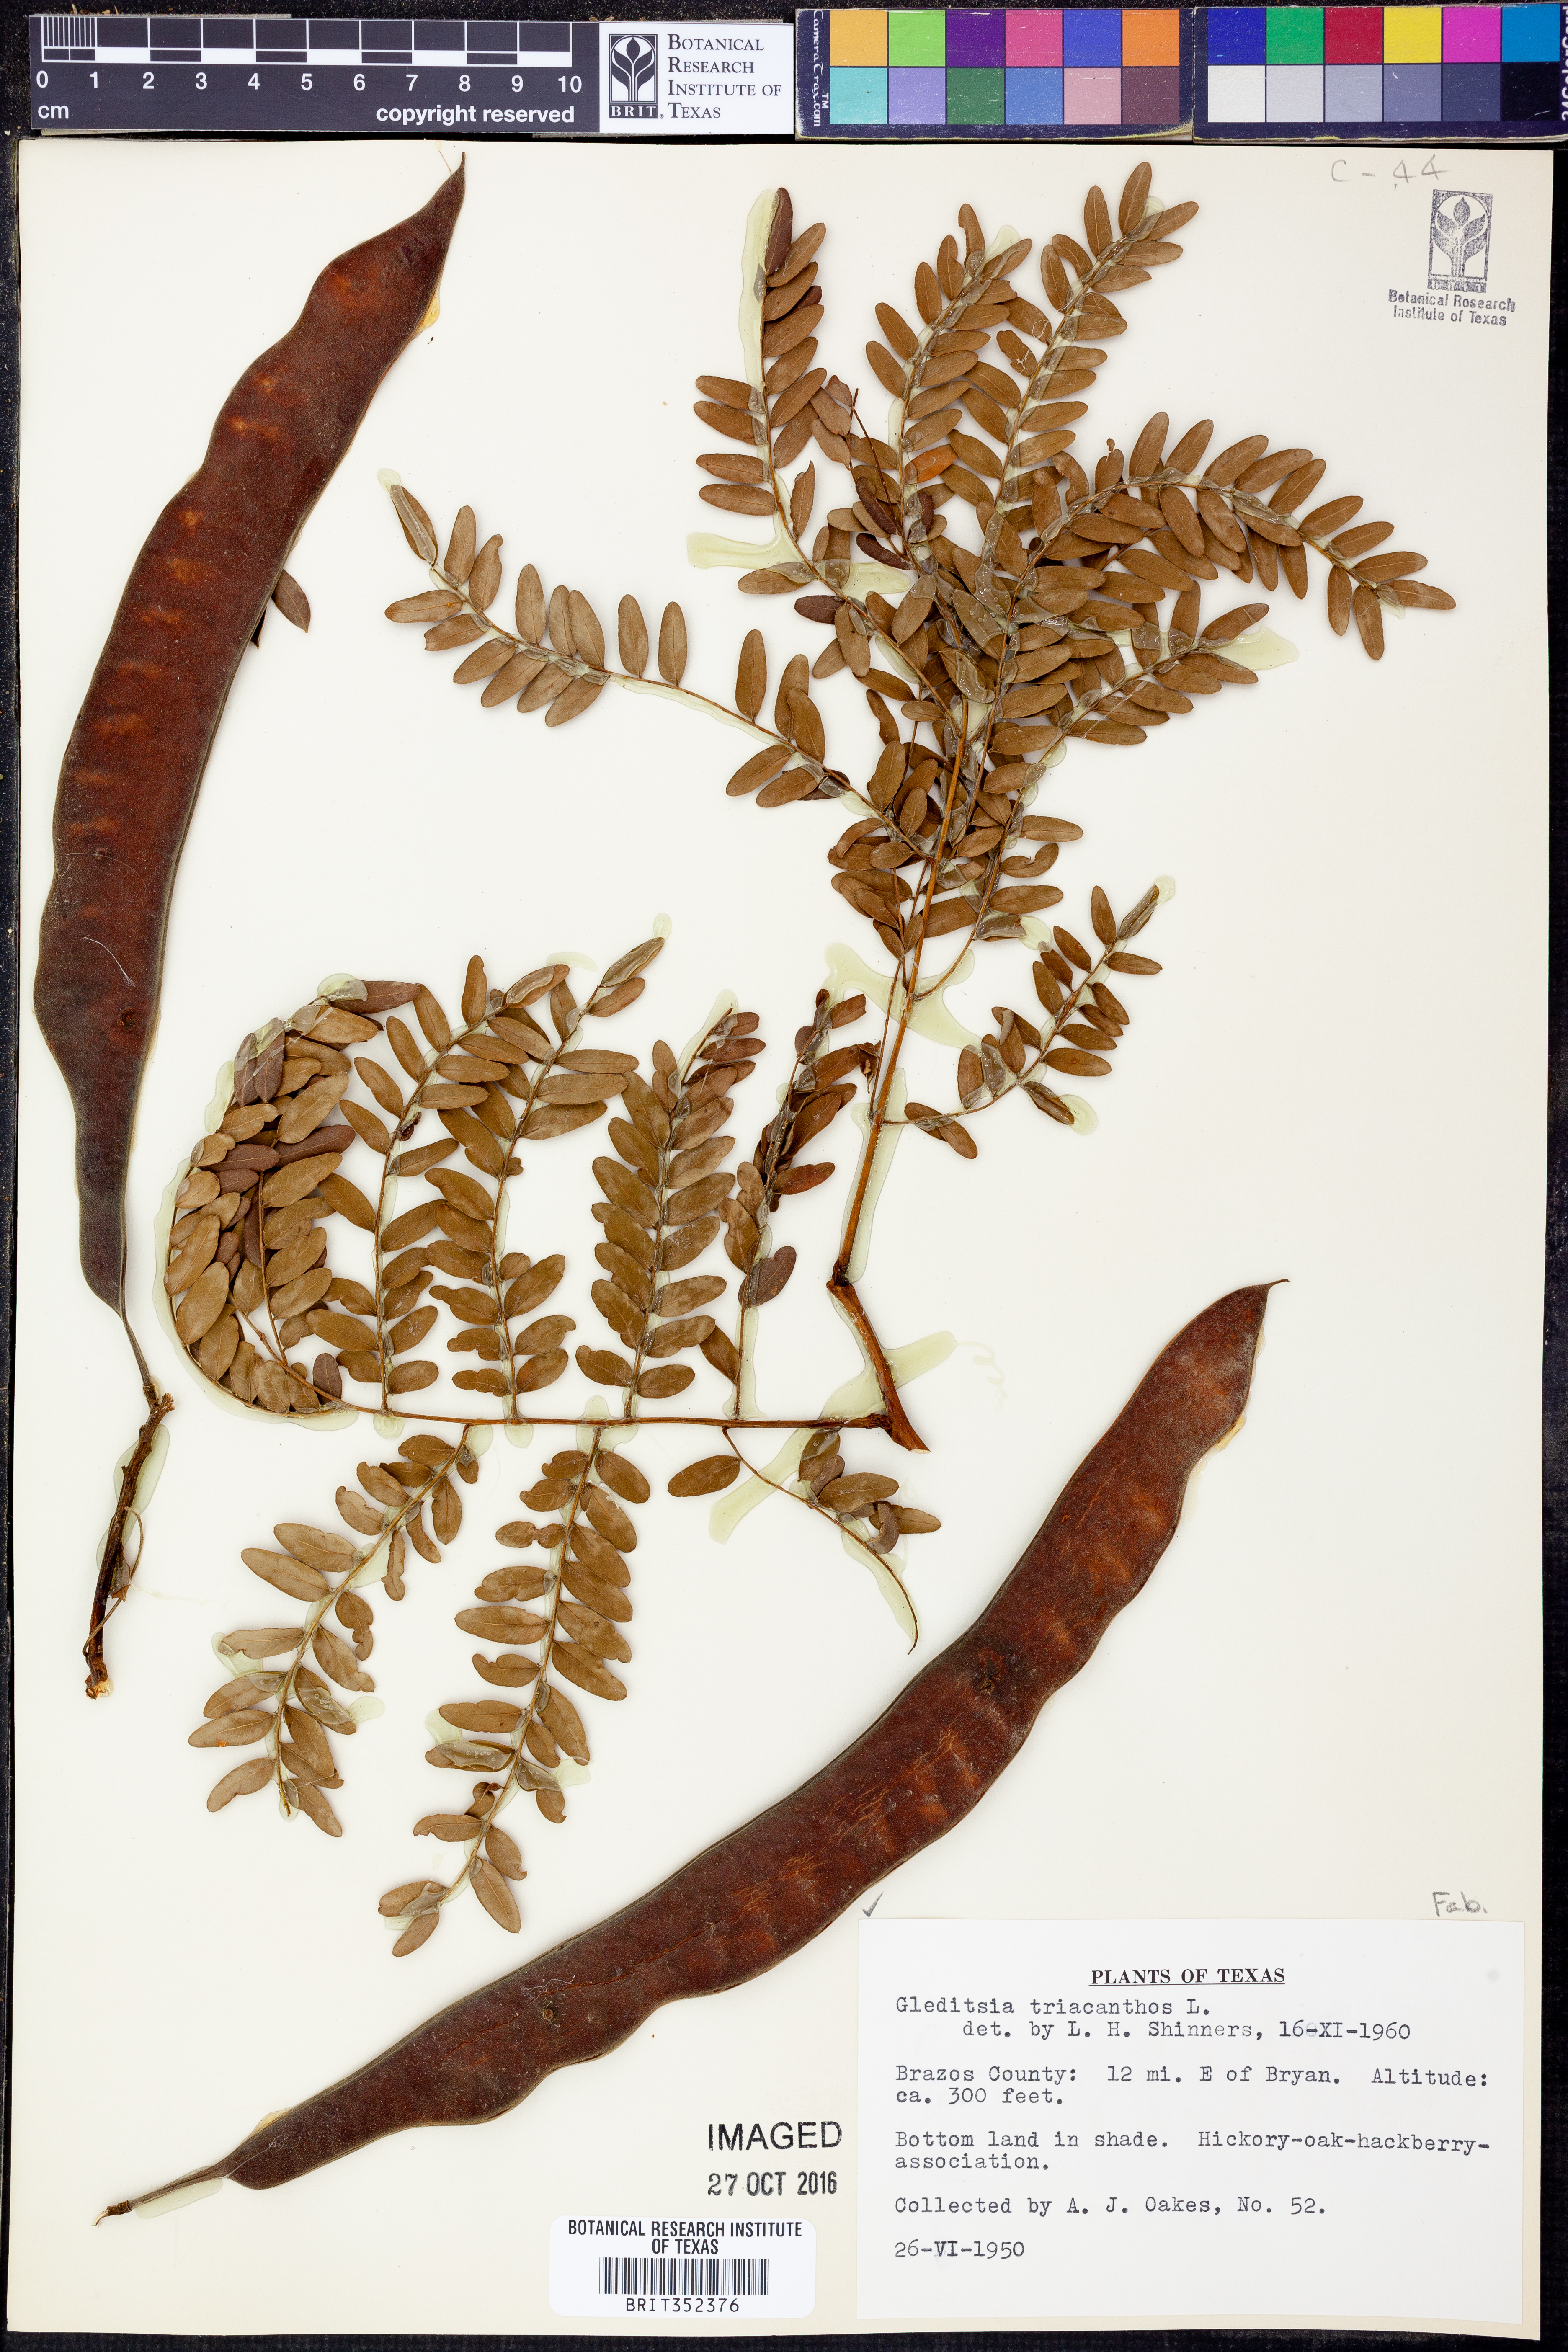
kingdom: Plantae
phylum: Tracheophyta
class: Magnoliopsida
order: Fabales
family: Fabaceae
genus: Gleditsia
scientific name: Gleditsia triacanthos
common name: Common honeylocust
